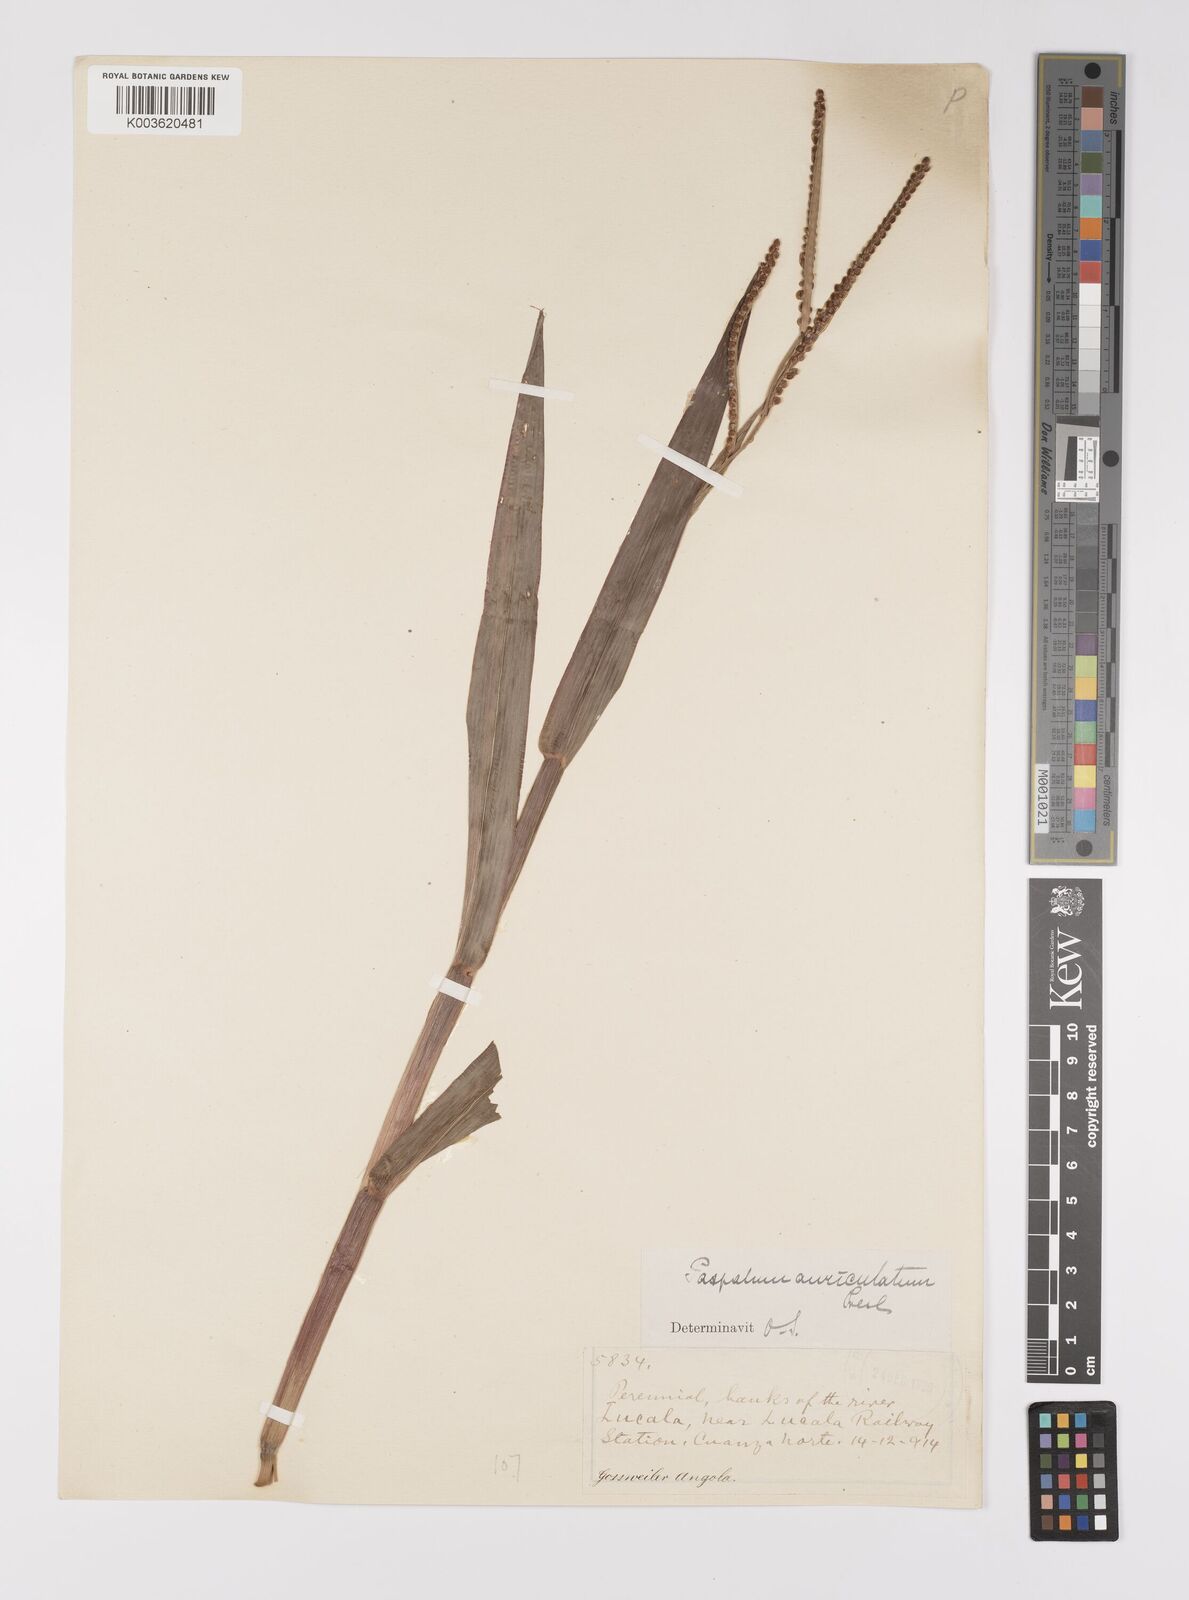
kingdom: Plantae
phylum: Tracheophyta
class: Liliopsida
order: Poales
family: Poaceae
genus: Paspalum
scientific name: Paspalum scrobiculatum
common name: Kodo millet
